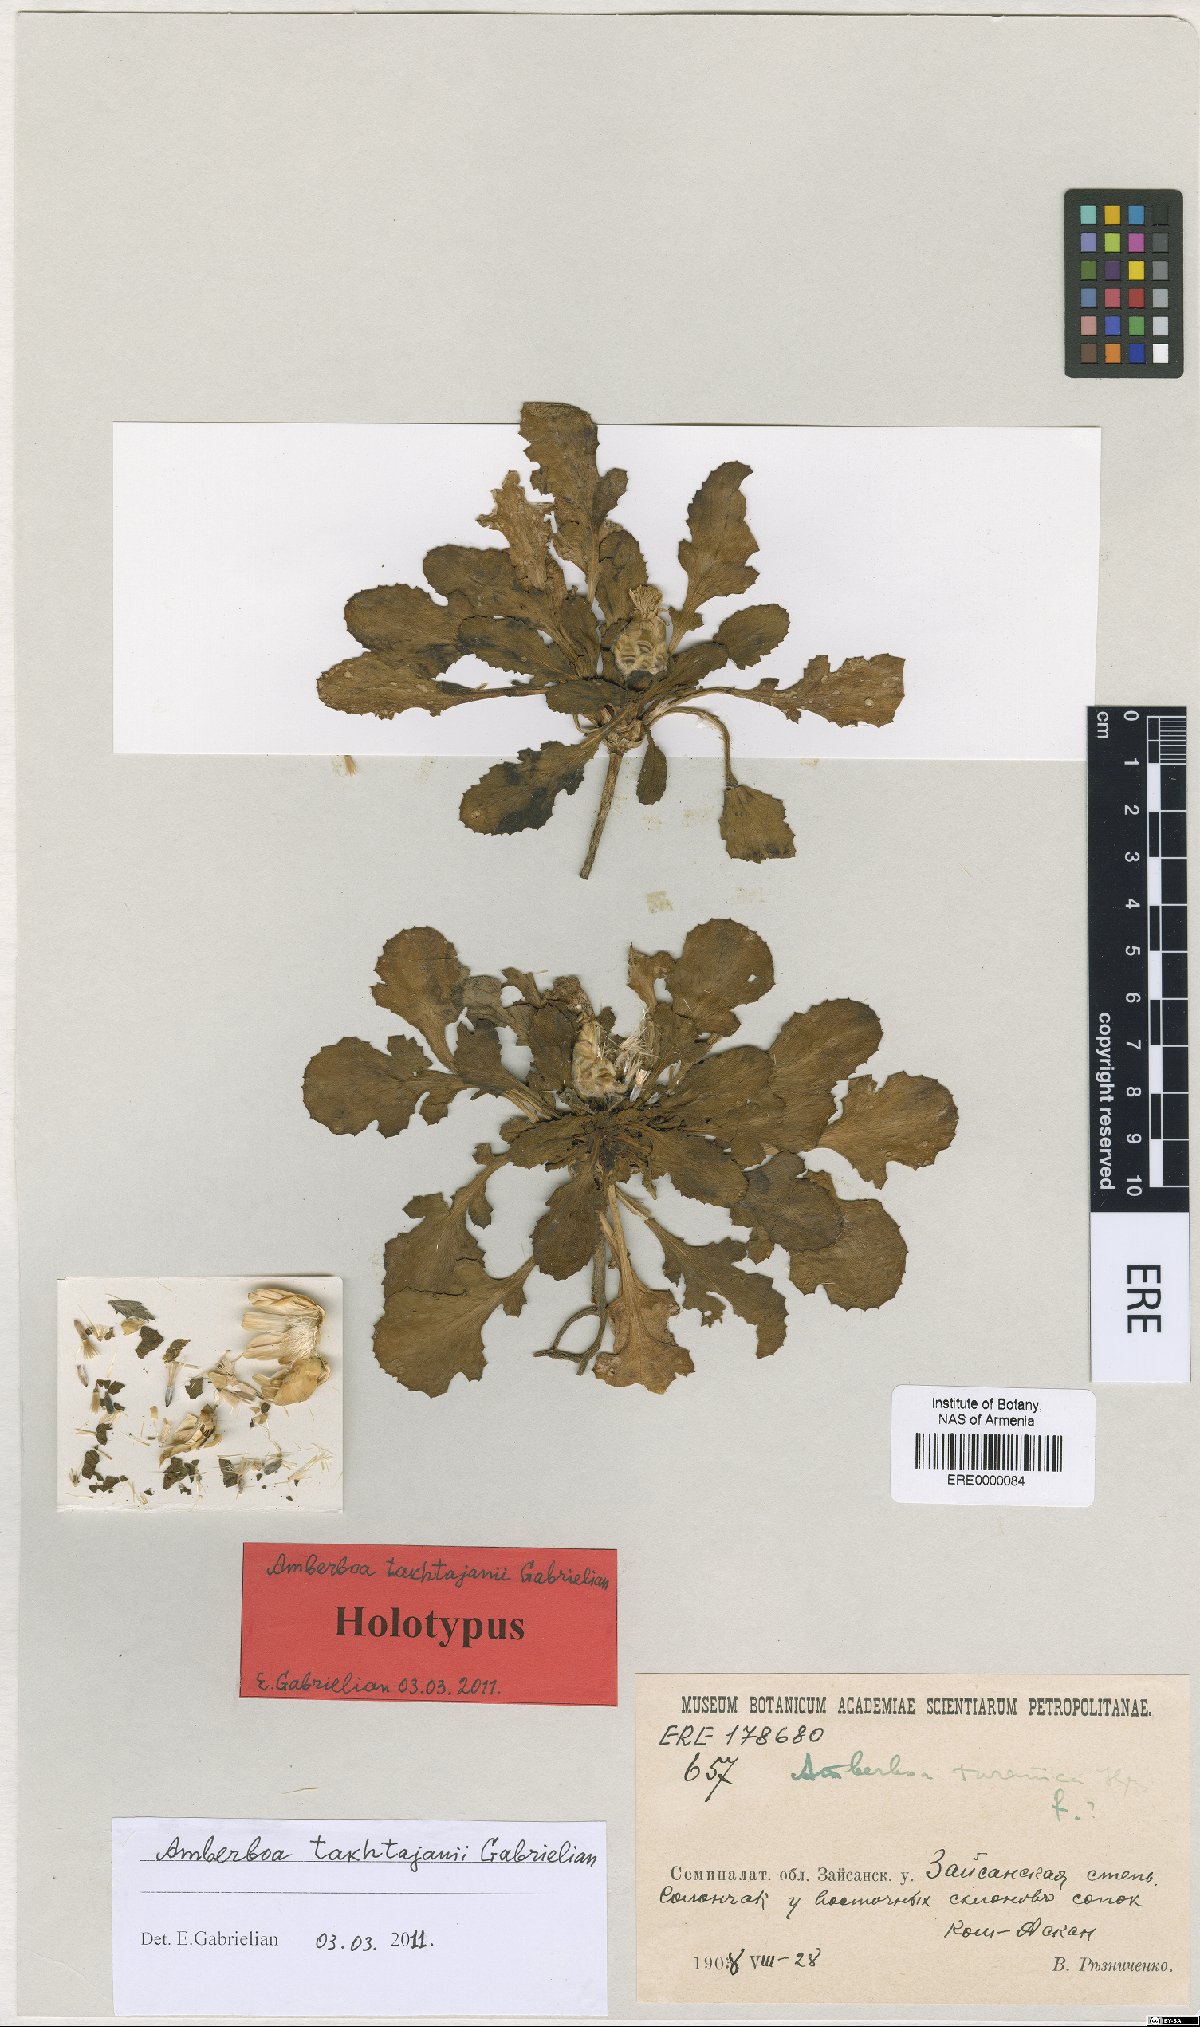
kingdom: Plantae
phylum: Tracheophyta
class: Magnoliopsida
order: Asterales
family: Asteraceae
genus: Amberboa
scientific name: Amberboa takhtajanii
